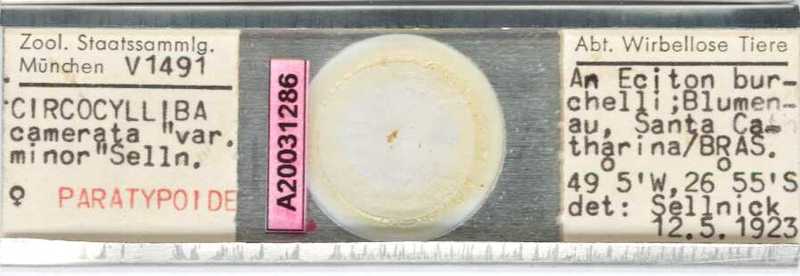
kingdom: Animalia
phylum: Arthropoda
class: Arachnida
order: Mesostigmata
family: Circocyllibamidae
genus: Circocylliba
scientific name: Circocylliba
